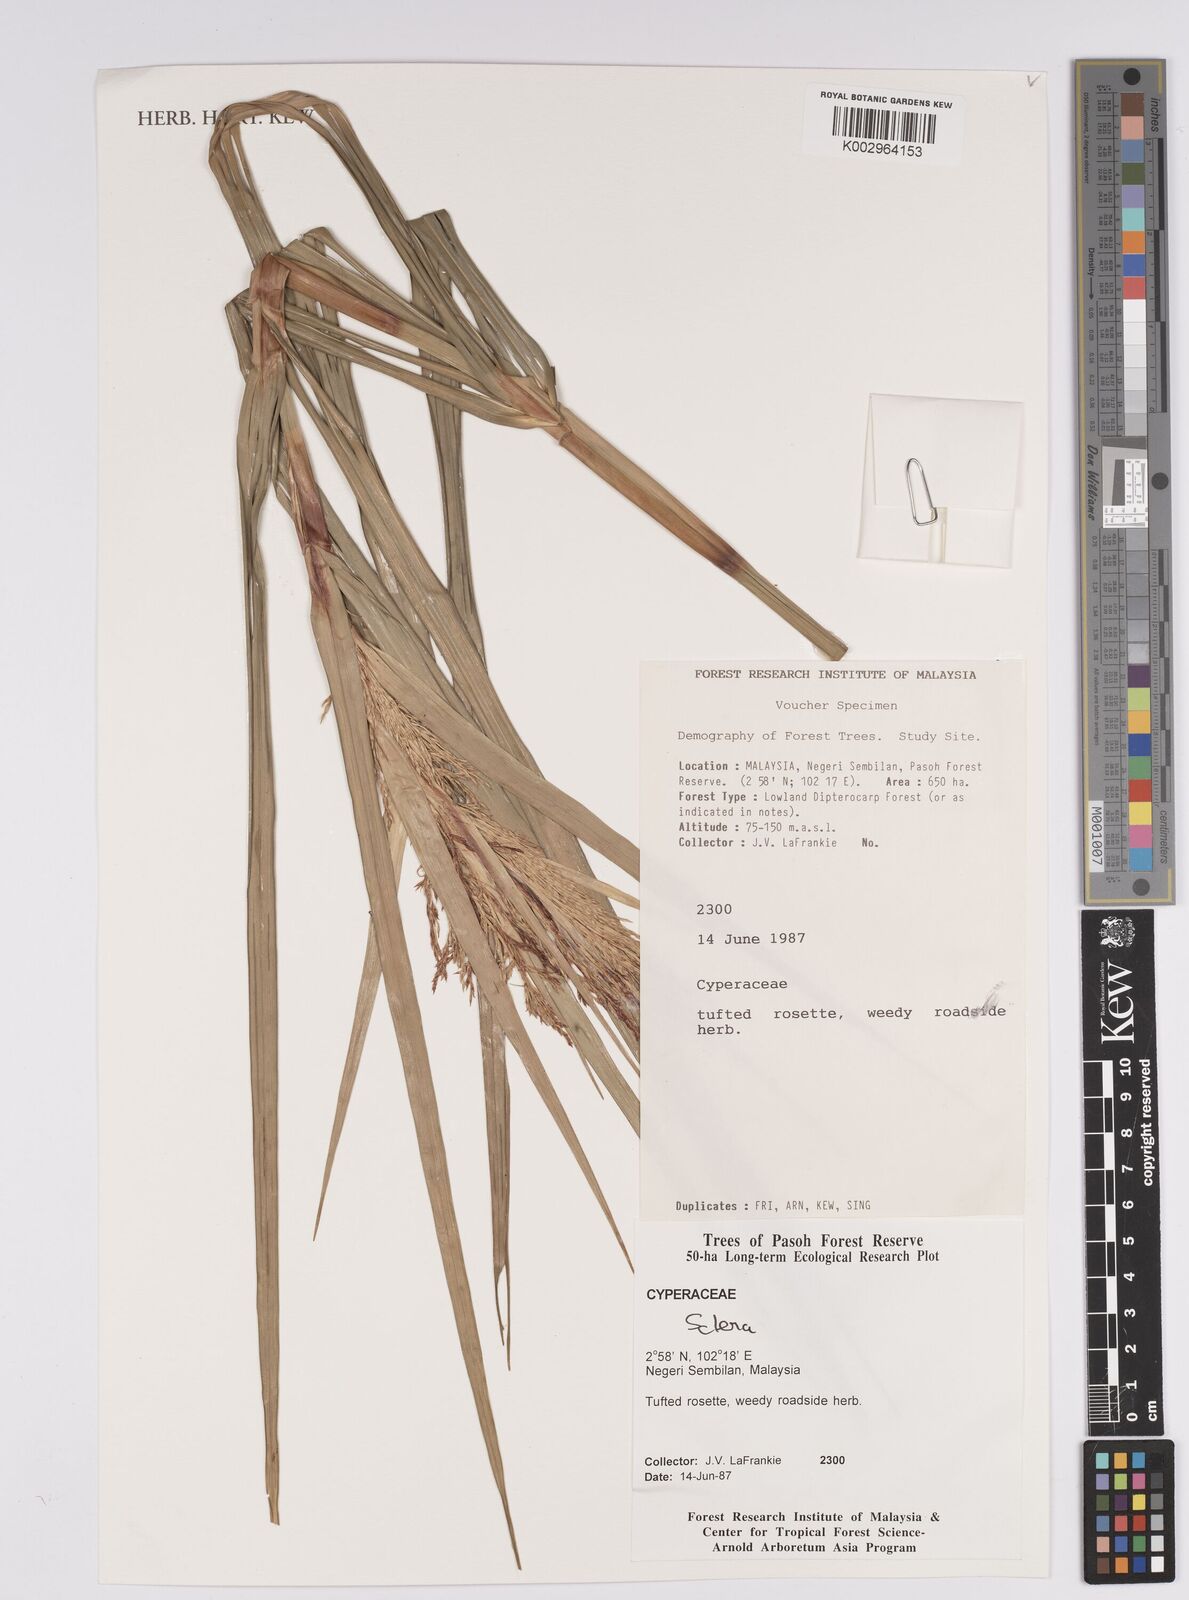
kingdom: Plantae
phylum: Tracheophyta
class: Liliopsida
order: Poales
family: Cyperaceae
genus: Scleria
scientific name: Scleria
